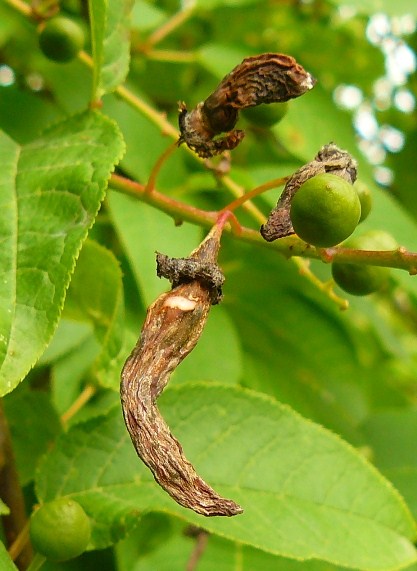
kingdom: Fungi
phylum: Ascomycota
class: Taphrinomycetes
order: Taphrinales
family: Taphrinaceae
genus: Taphrina
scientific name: Taphrina padi
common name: Bird cherry pocket
